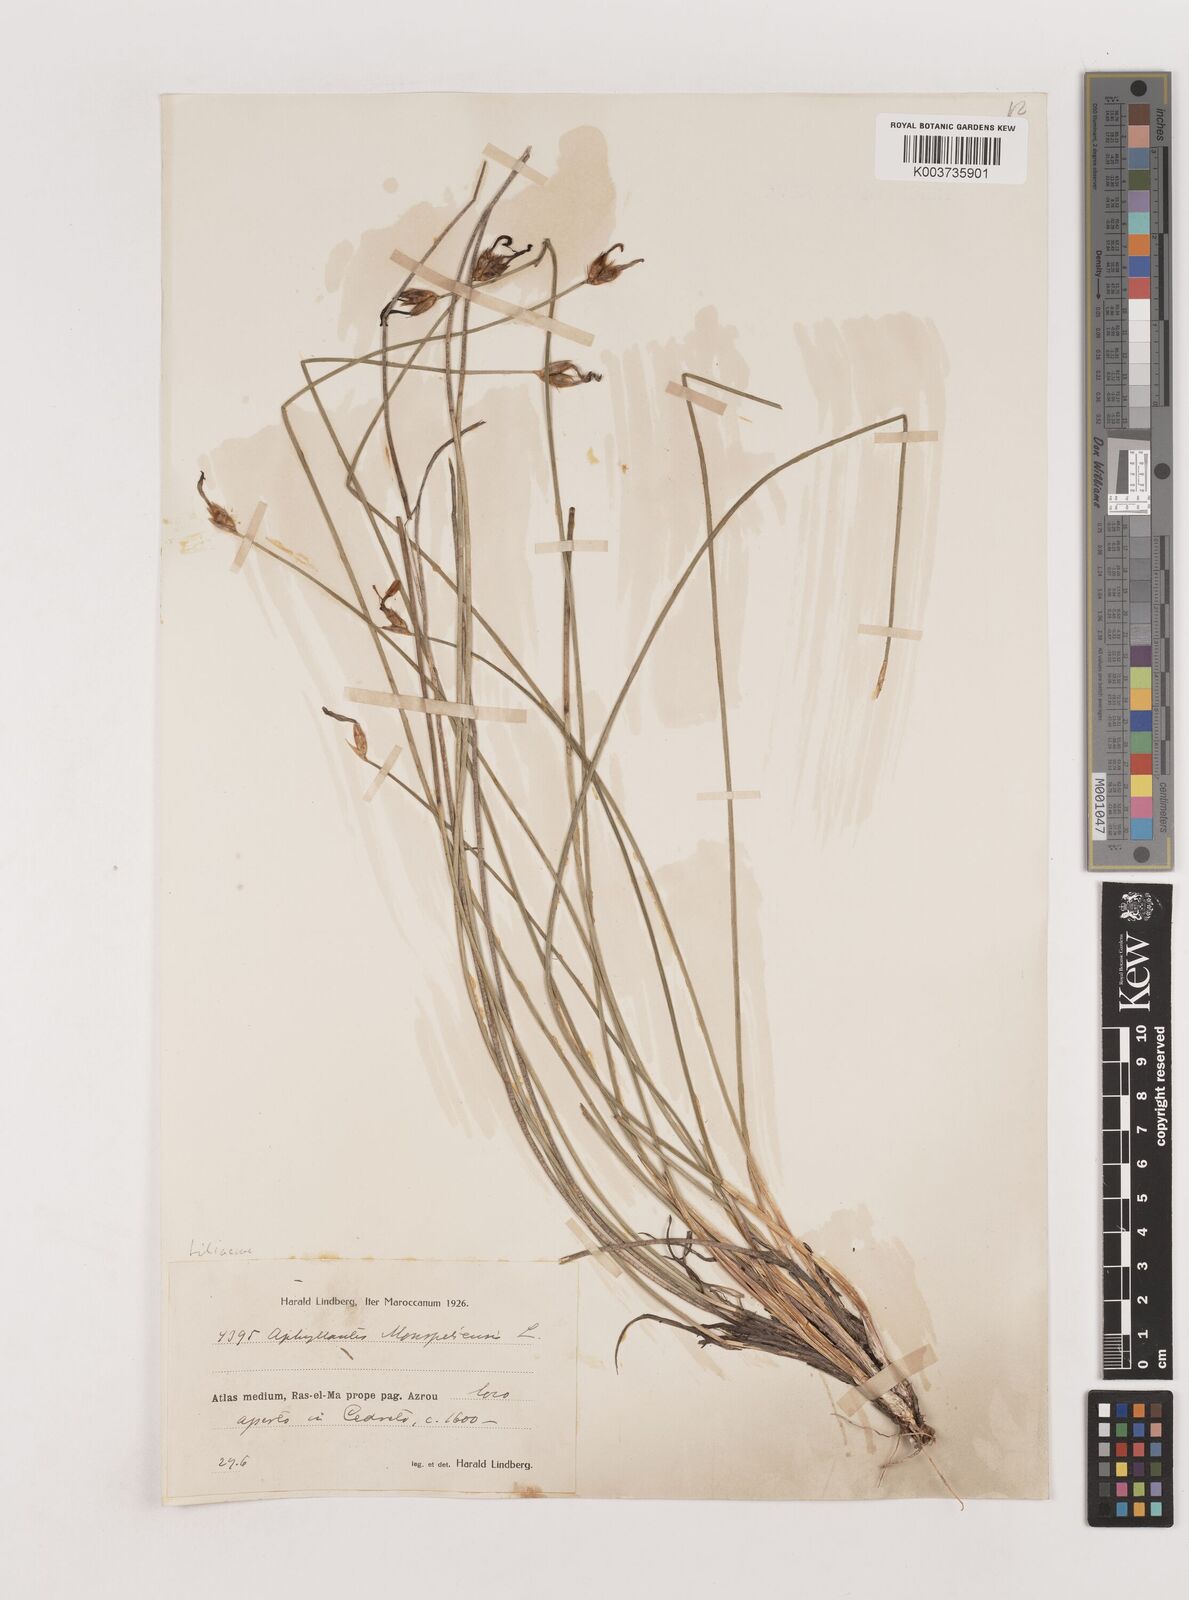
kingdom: Plantae
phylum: Tracheophyta
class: Liliopsida
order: Asparagales
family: Asparagaceae
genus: Aphyllanthes
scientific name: Aphyllanthes monspeliensis
